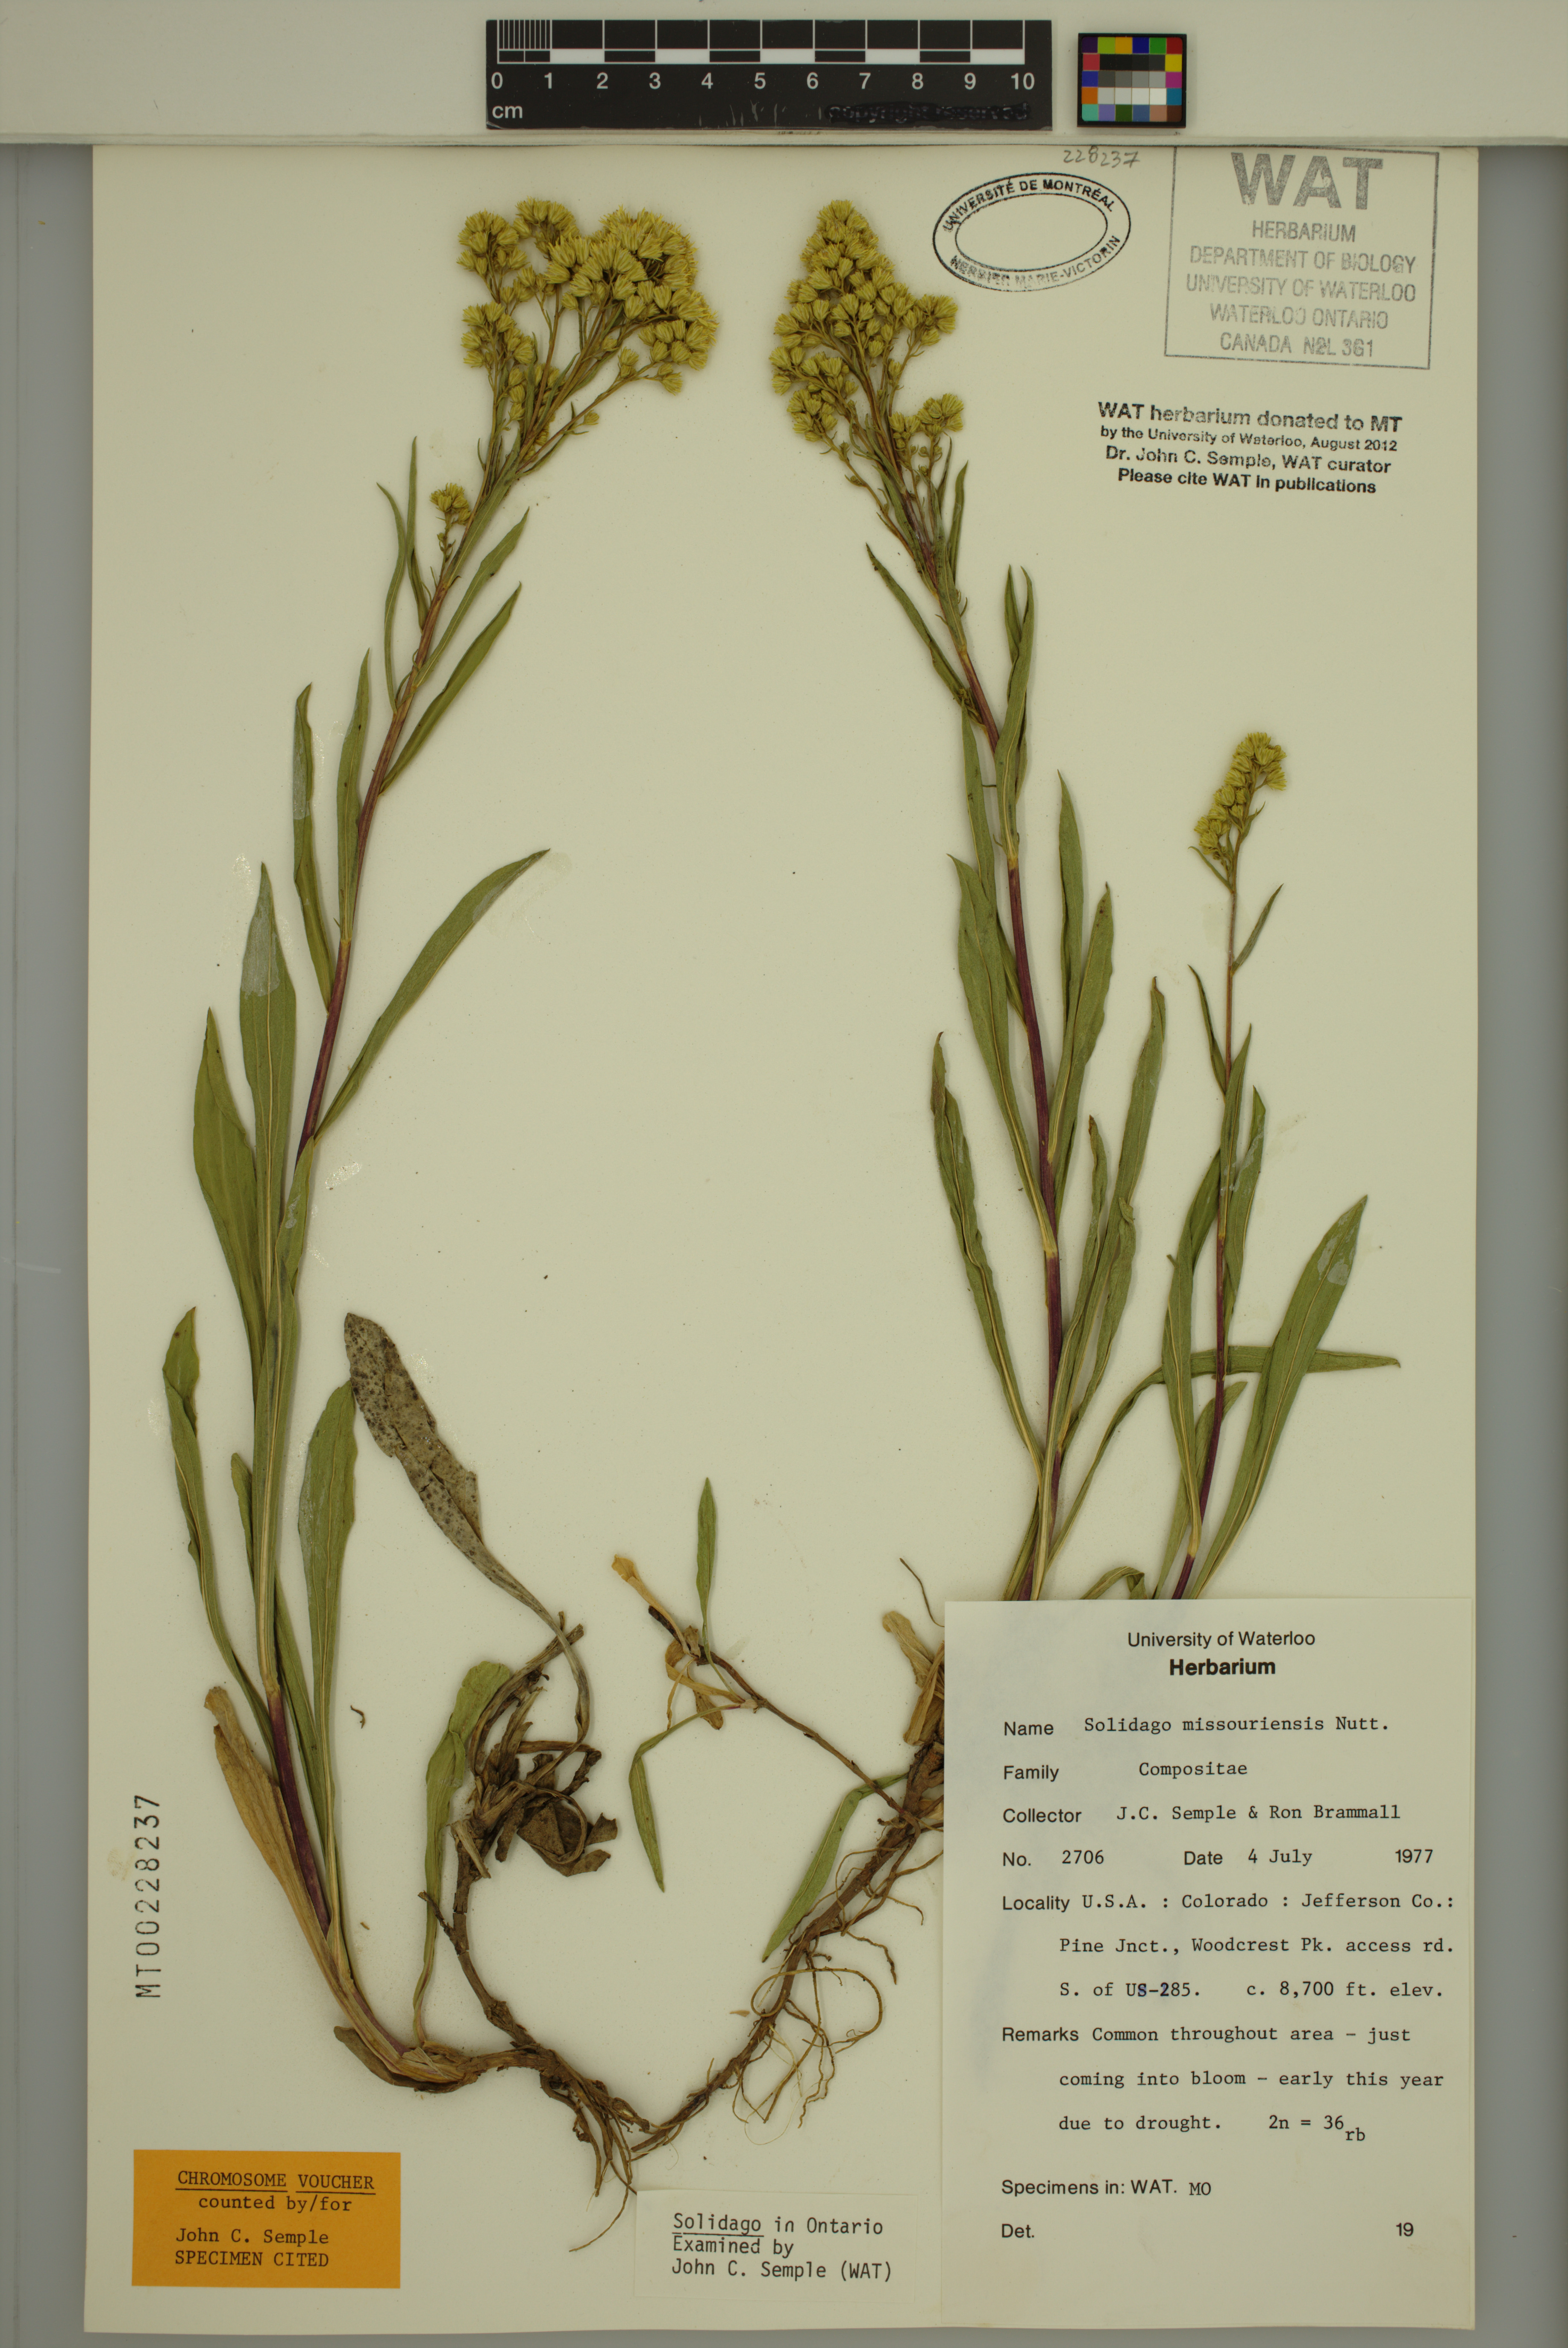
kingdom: Plantae
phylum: Tracheophyta
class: Magnoliopsida
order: Asterales
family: Asteraceae
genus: Solidago
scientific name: Solidago missouriensis
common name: Prairie goldenrod
